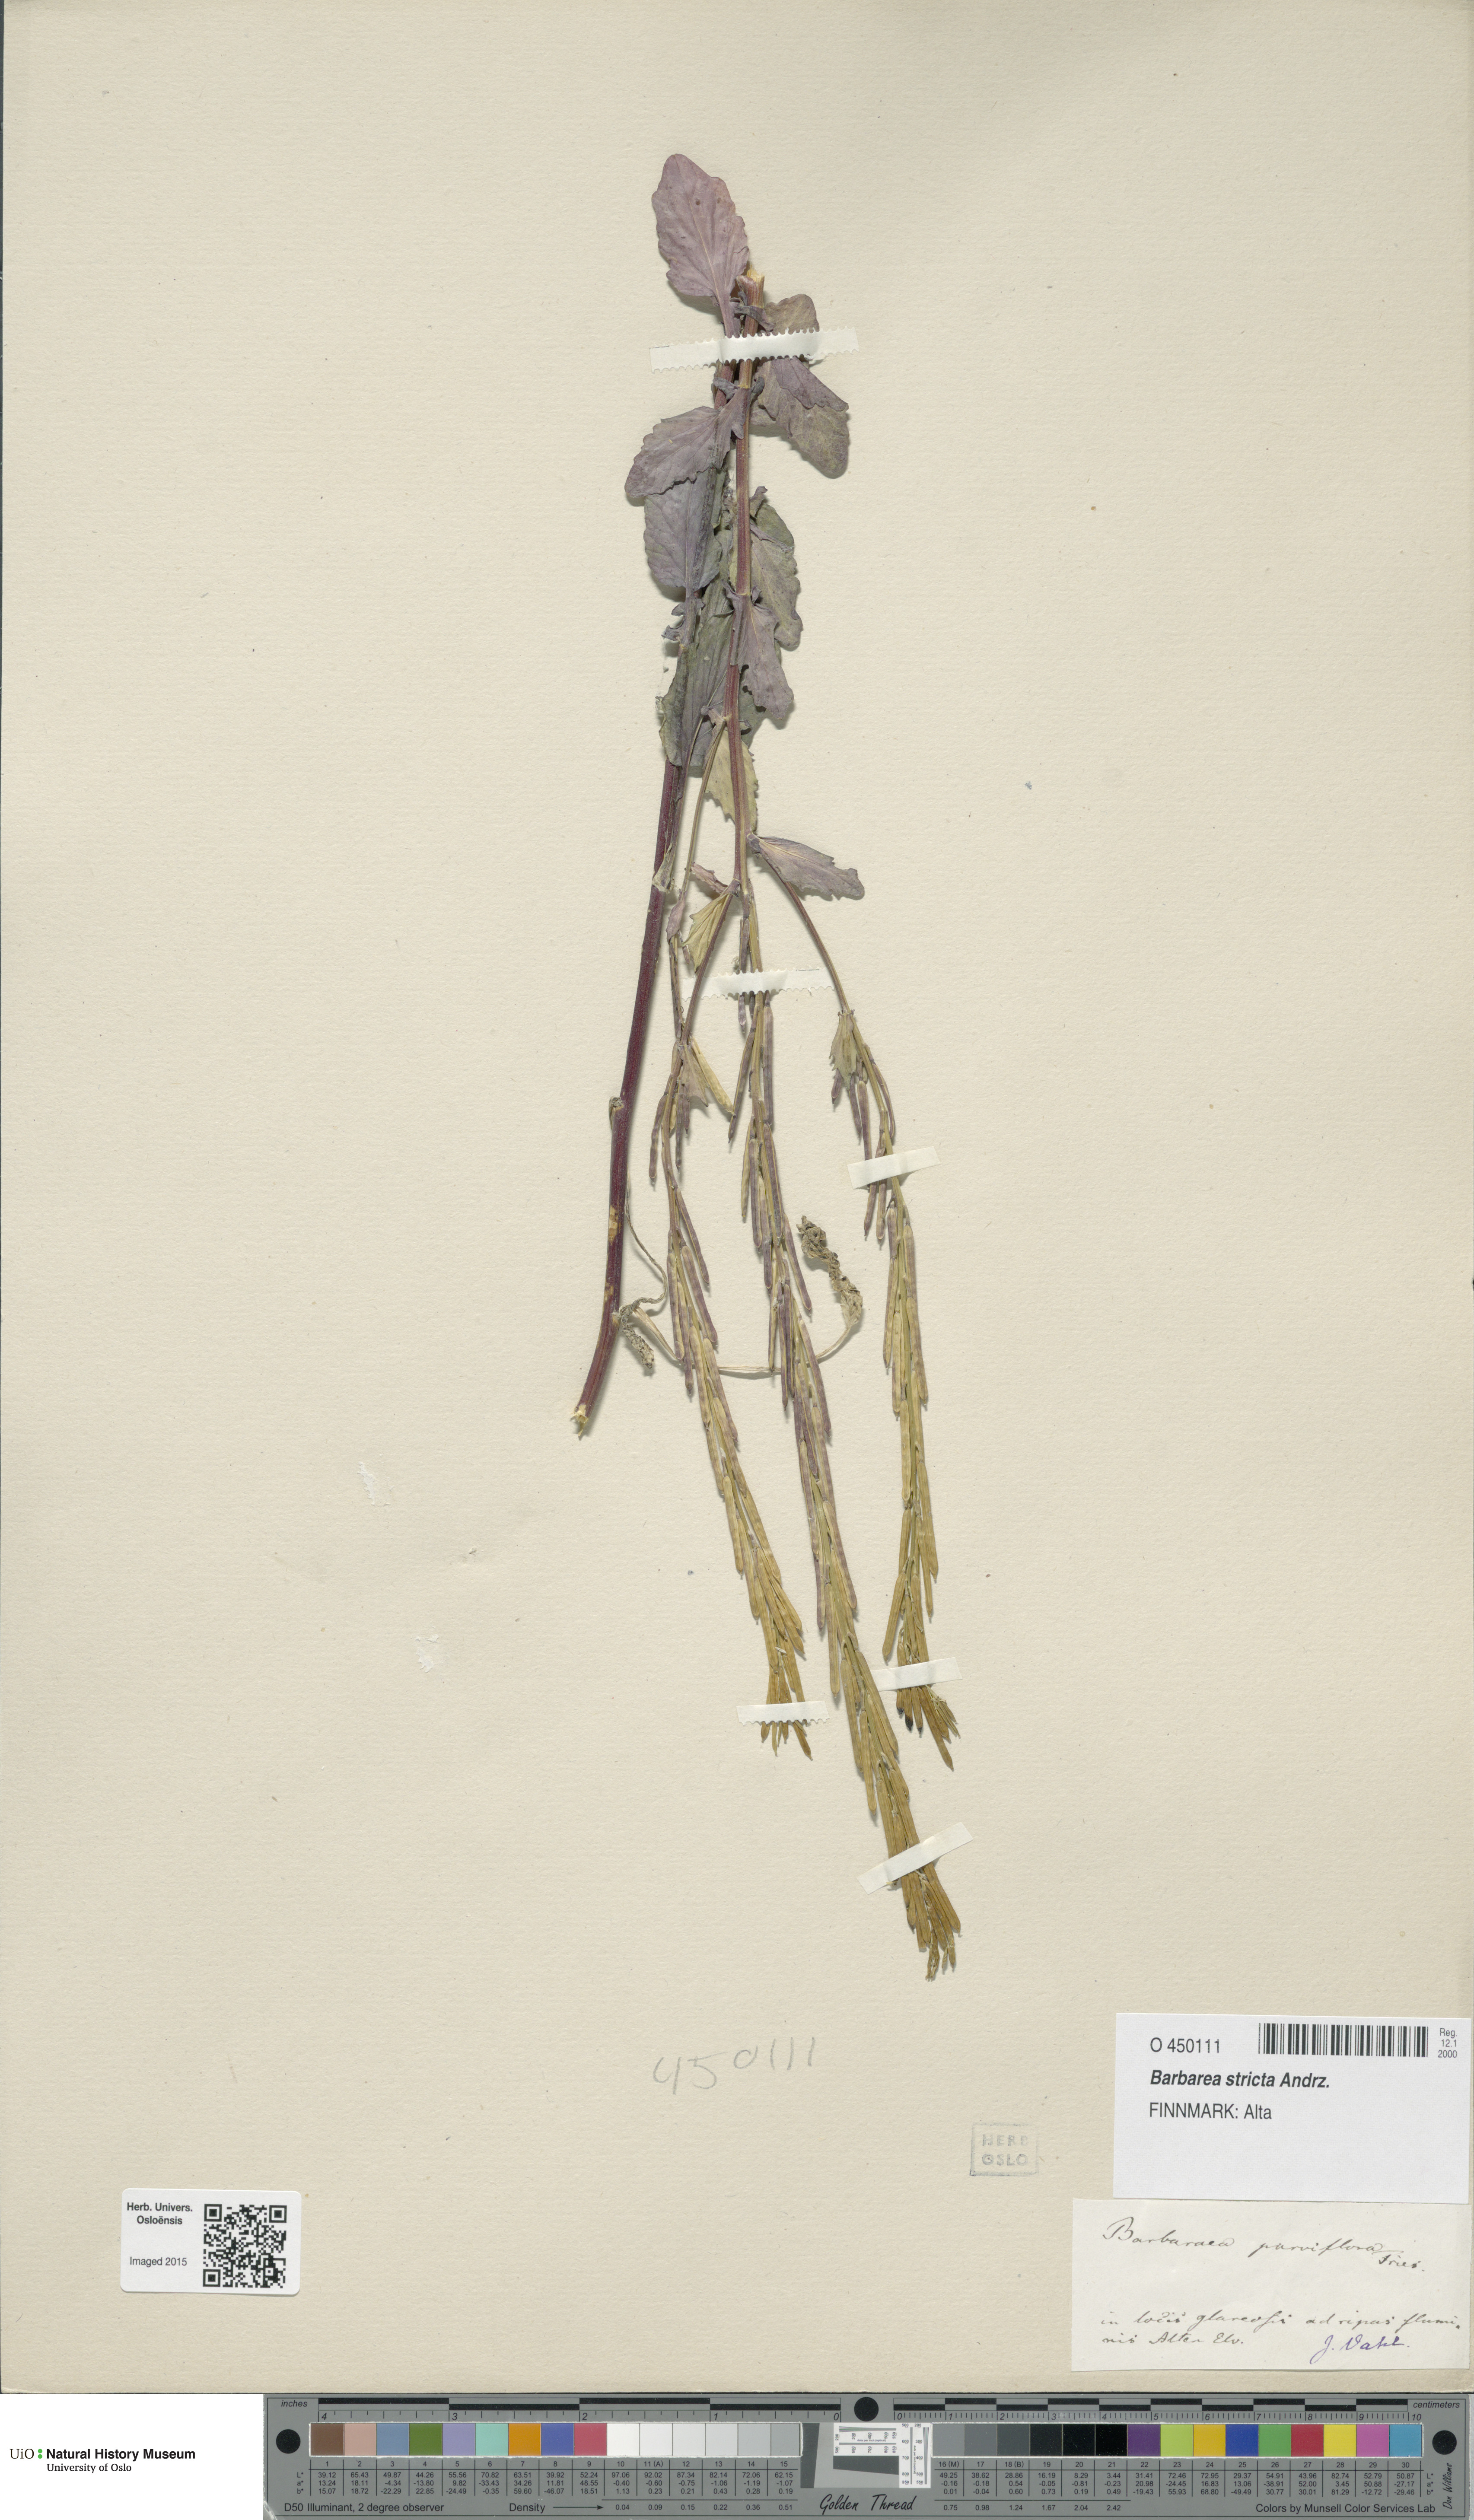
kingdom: Plantae
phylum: Tracheophyta
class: Magnoliopsida
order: Brassicales
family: Brassicaceae
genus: Barbarea
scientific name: Barbarea stricta
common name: Small-flowered winter-cress
